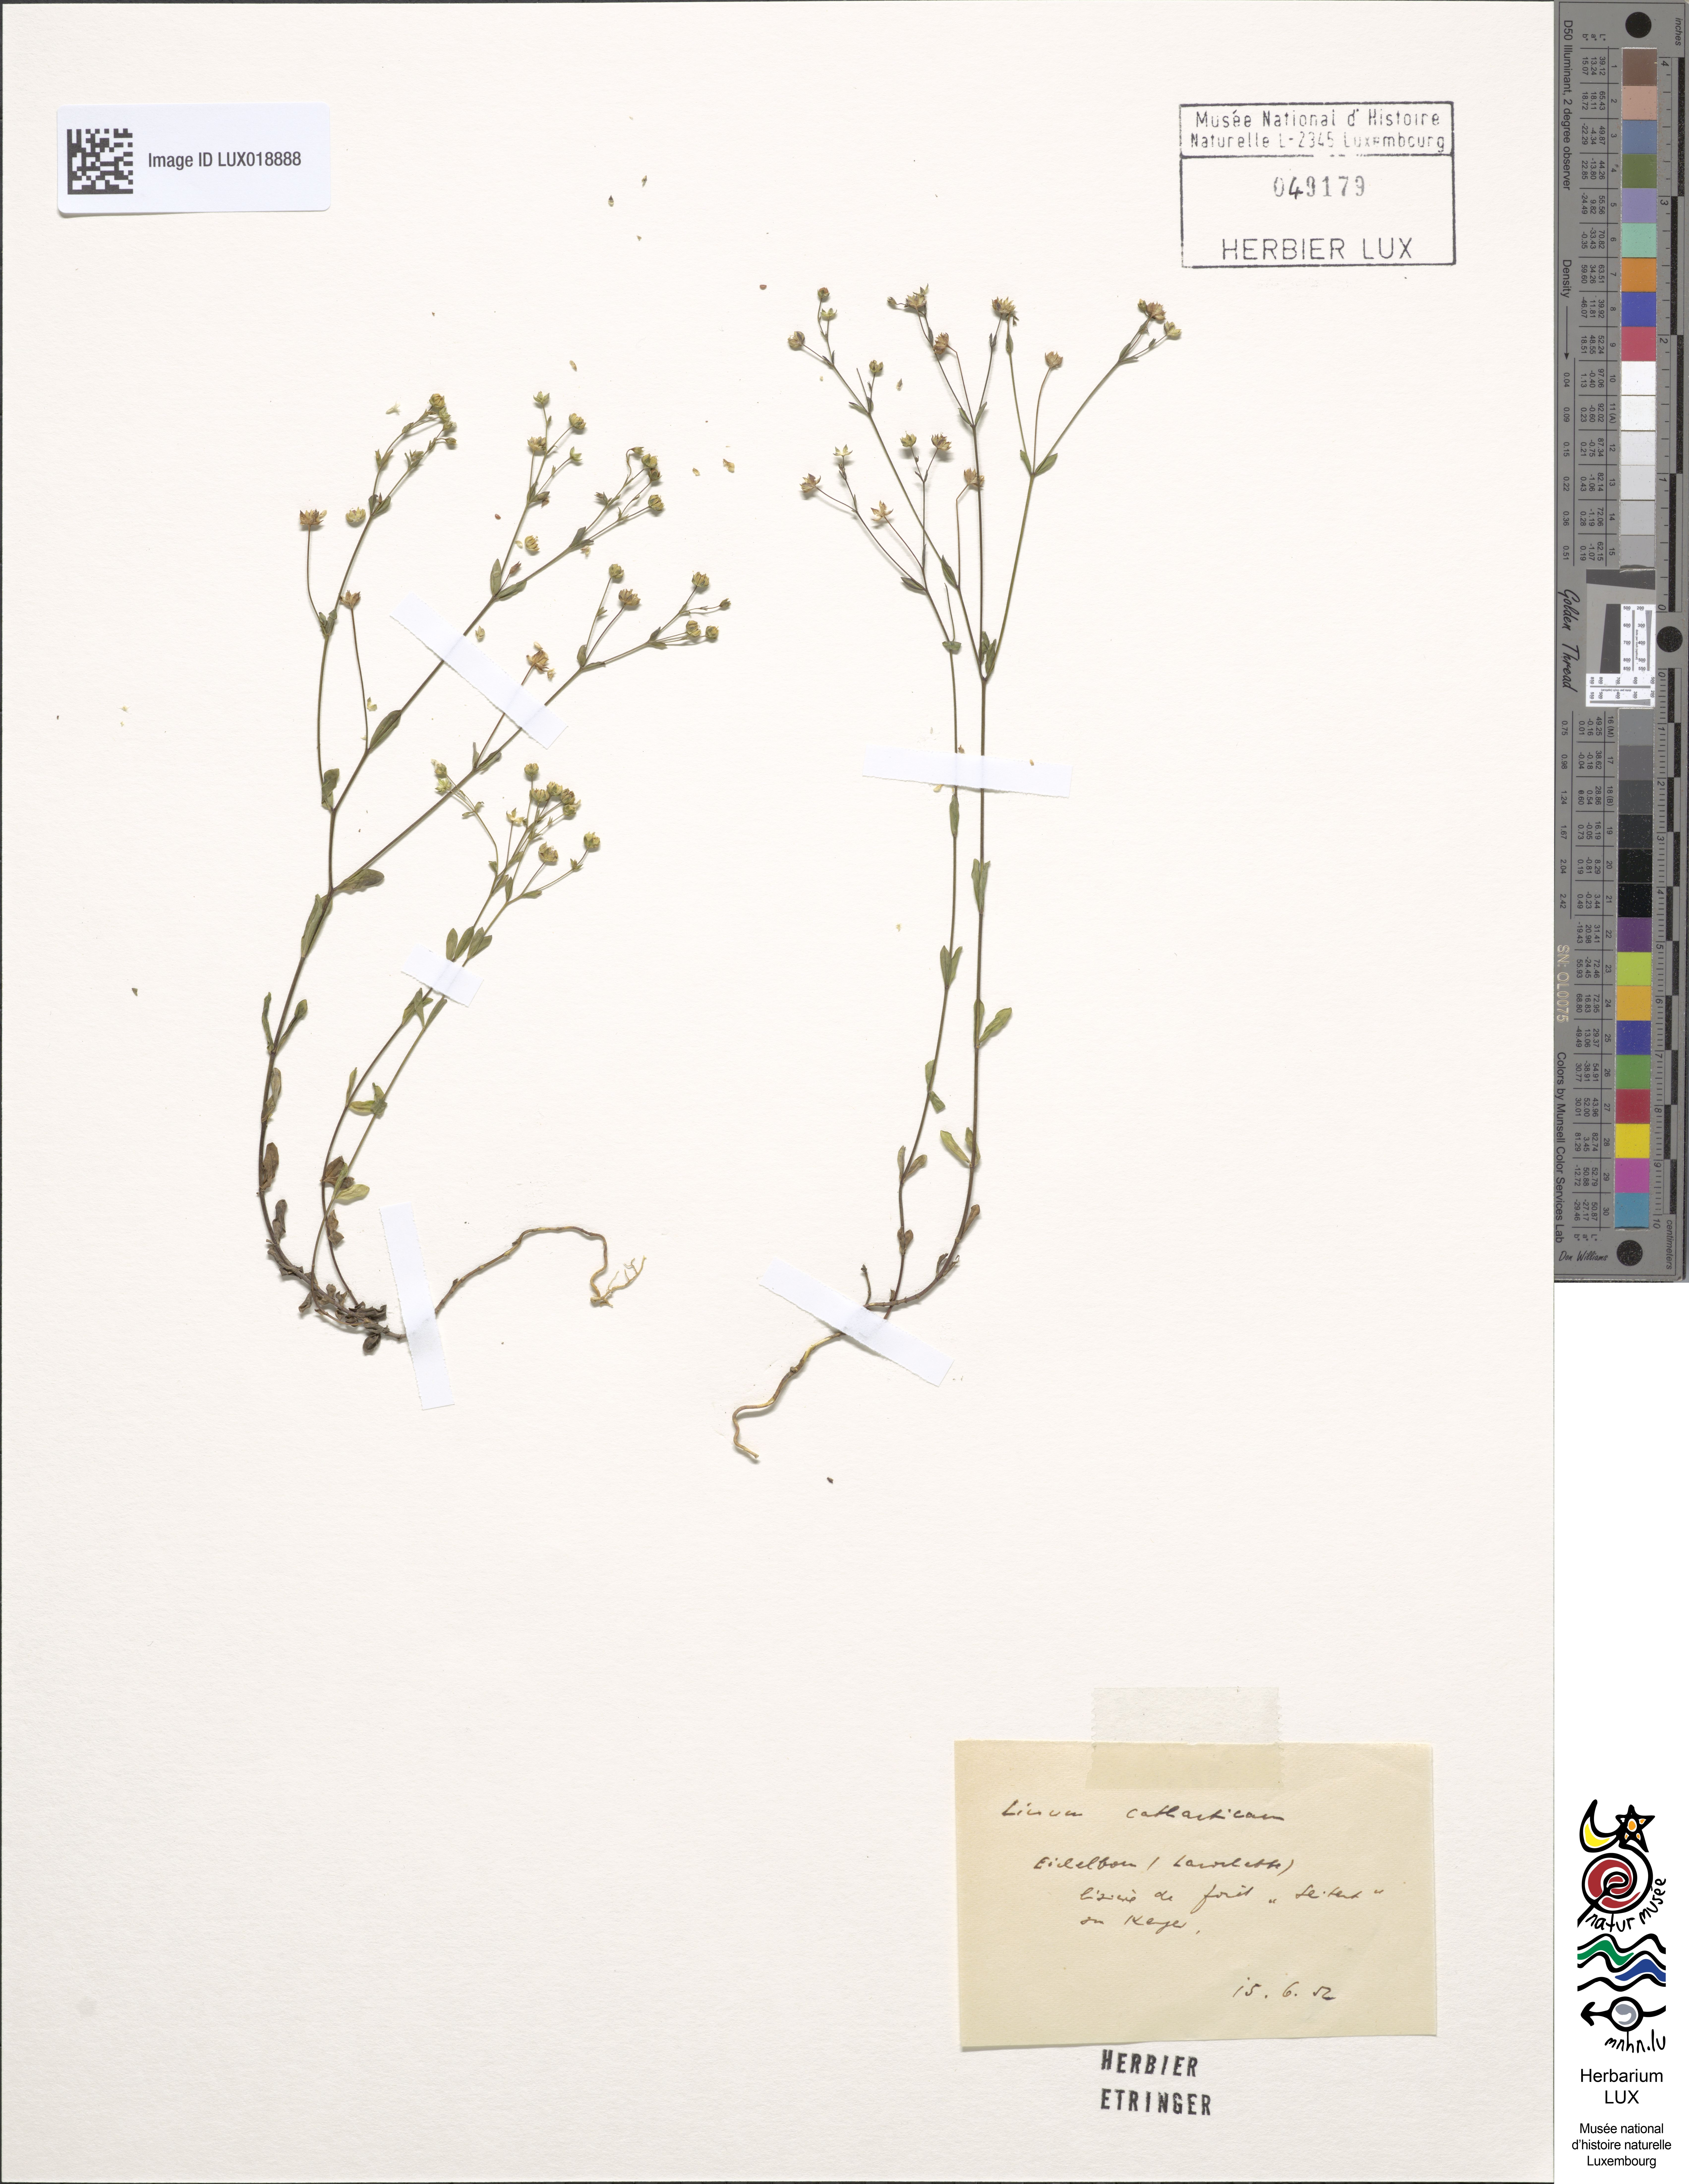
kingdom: Plantae
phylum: Tracheophyta
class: Magnoliopsida
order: Malpighiales
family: Linaceae
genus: Linum
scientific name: Linum catharticum
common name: Fairy flax
